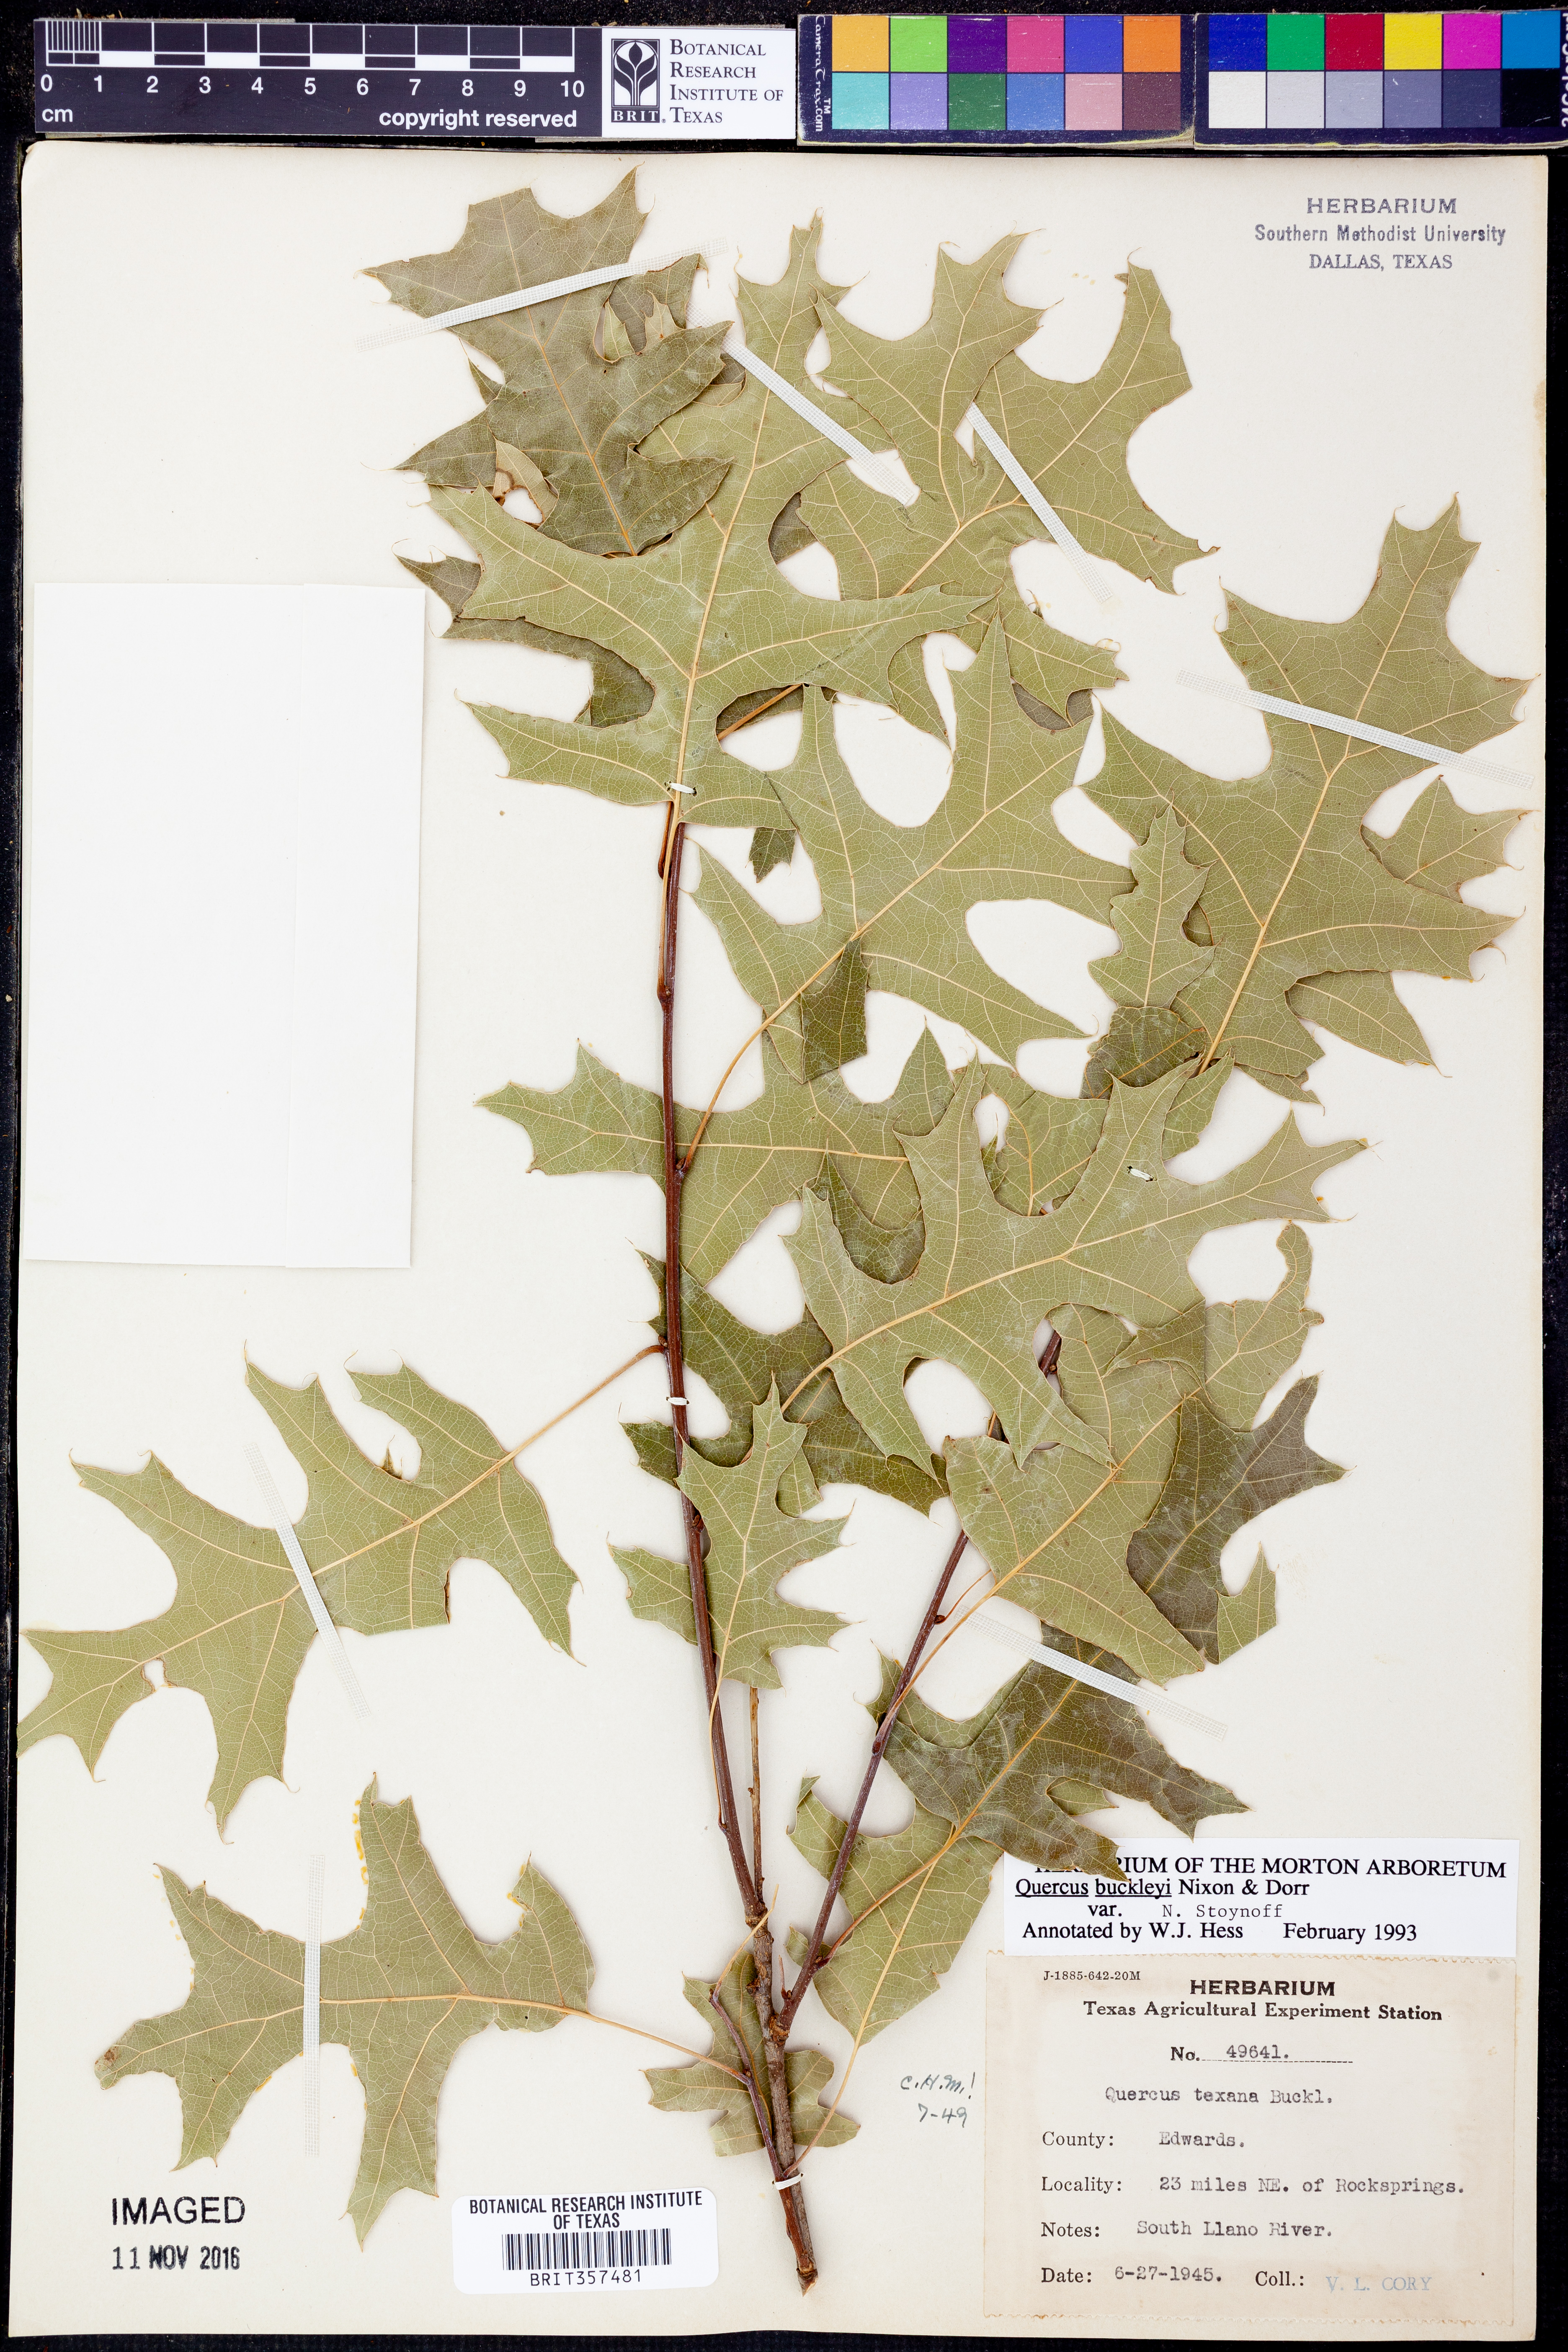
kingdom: Plantae
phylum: Tracheophyta
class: Magnoliopsida
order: Fagales
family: Fagaceae
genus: Quercus
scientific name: Quercus buckleyi
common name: Buckley oak
